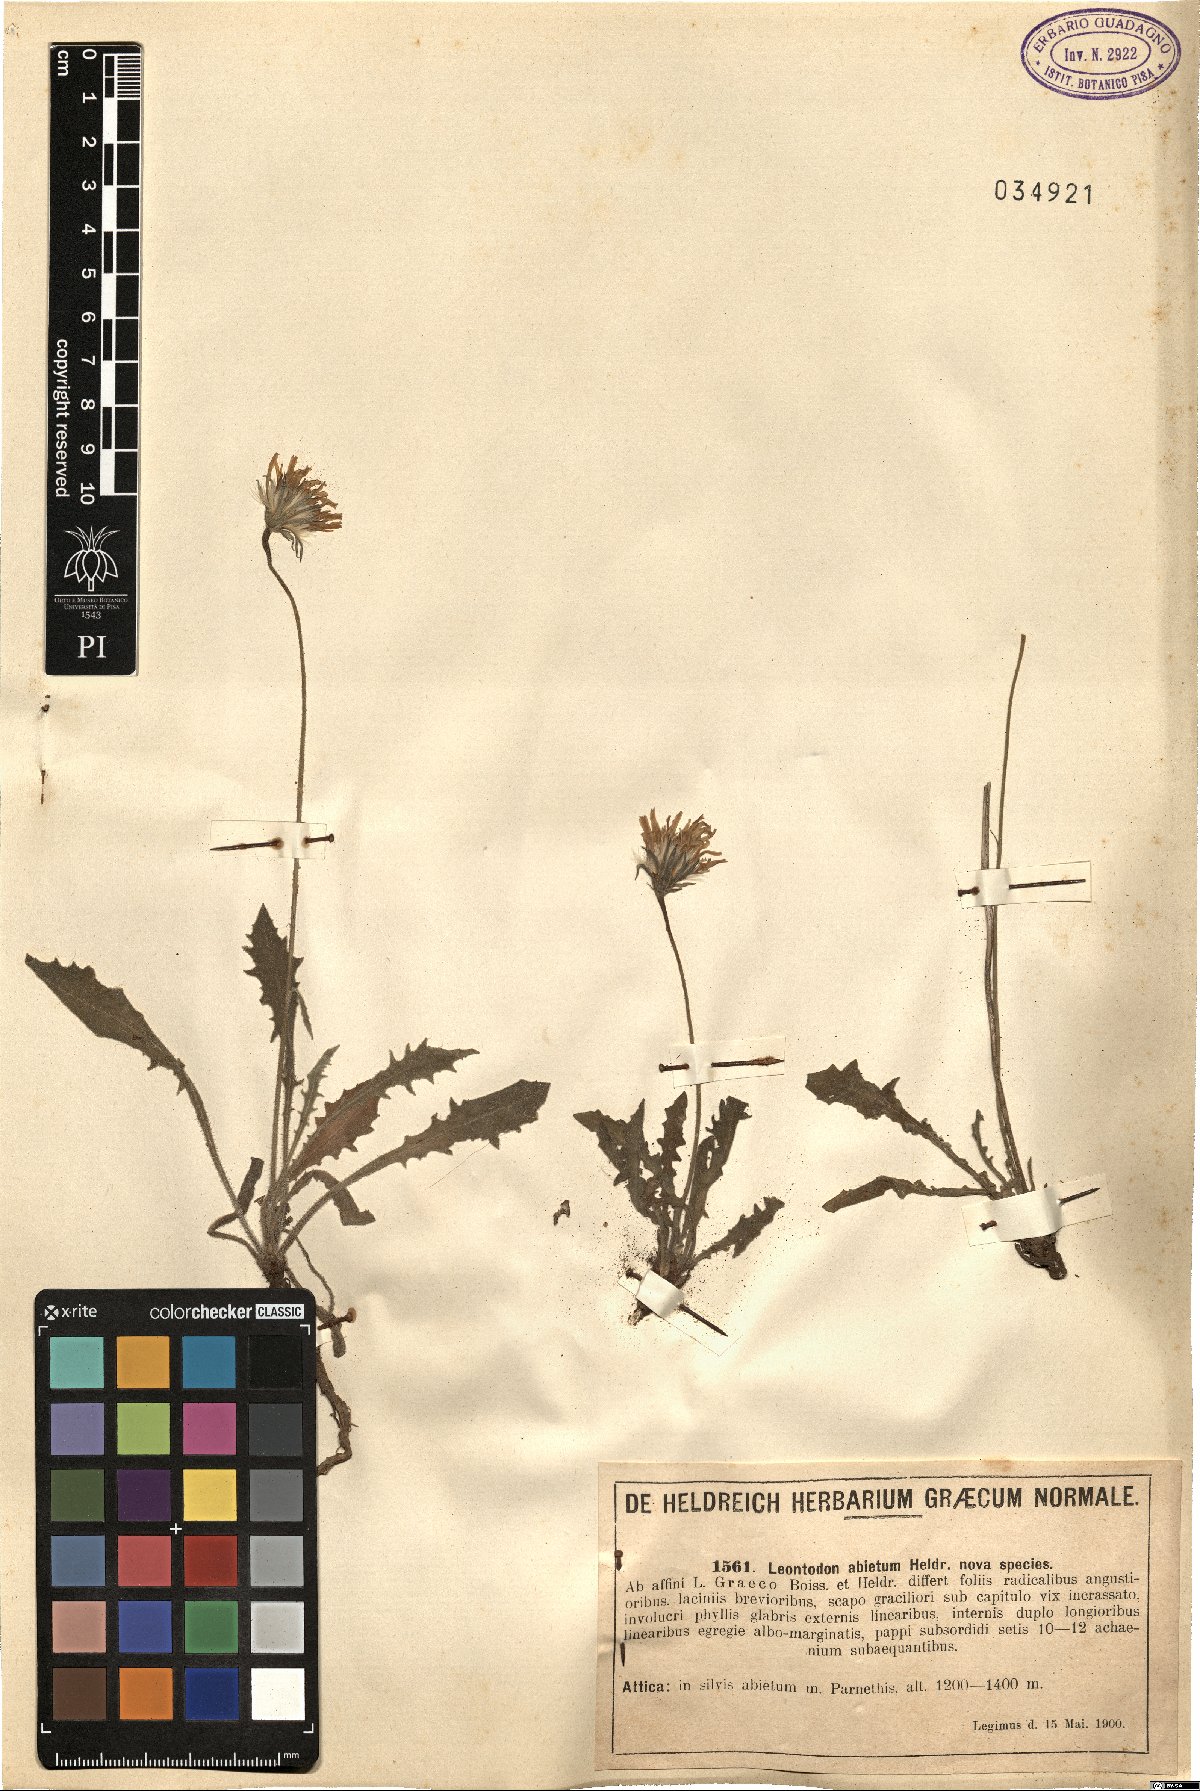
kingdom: Plantae
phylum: Tracheophyta
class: Magnoliopsida
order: Asterales
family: Asteraceae
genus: Leontodon
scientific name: Leontodon
